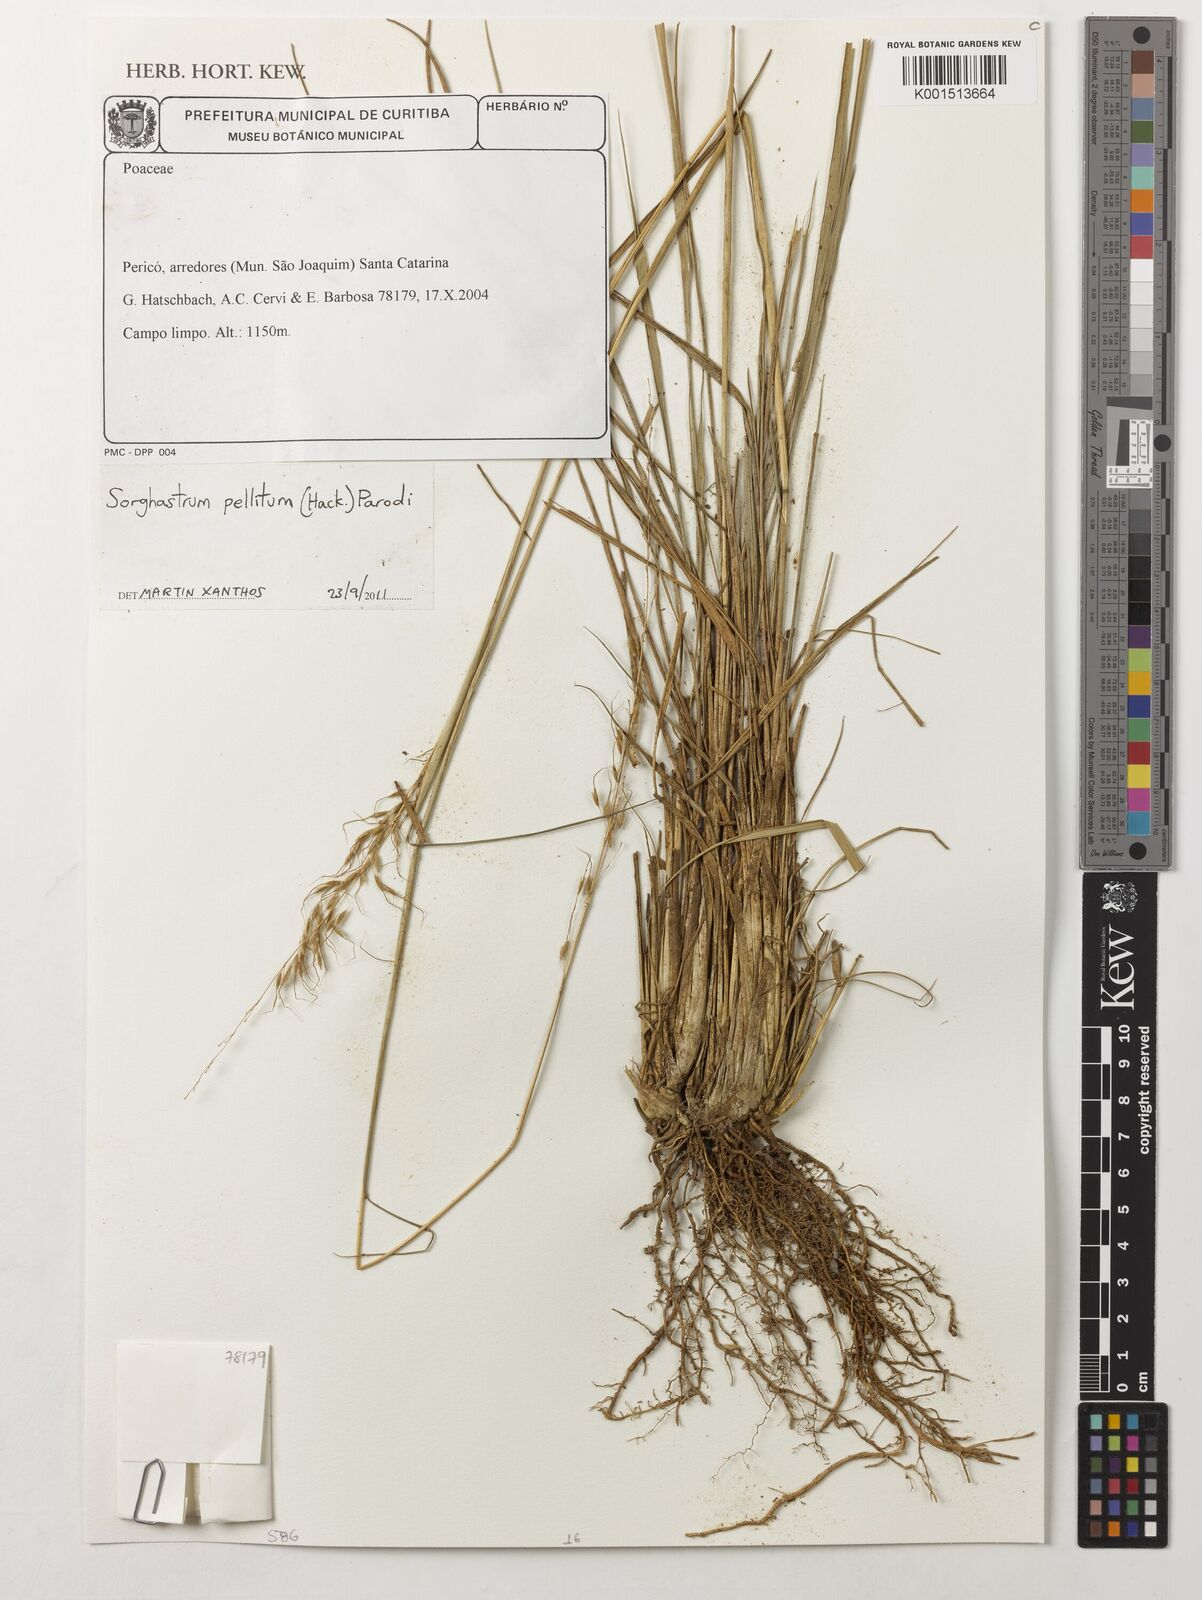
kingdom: Plantae
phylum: Tracheophyta
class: Liliopsida
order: Poales
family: Poaceae
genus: Sorghastrum
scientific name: Sorghastrum pellitum
